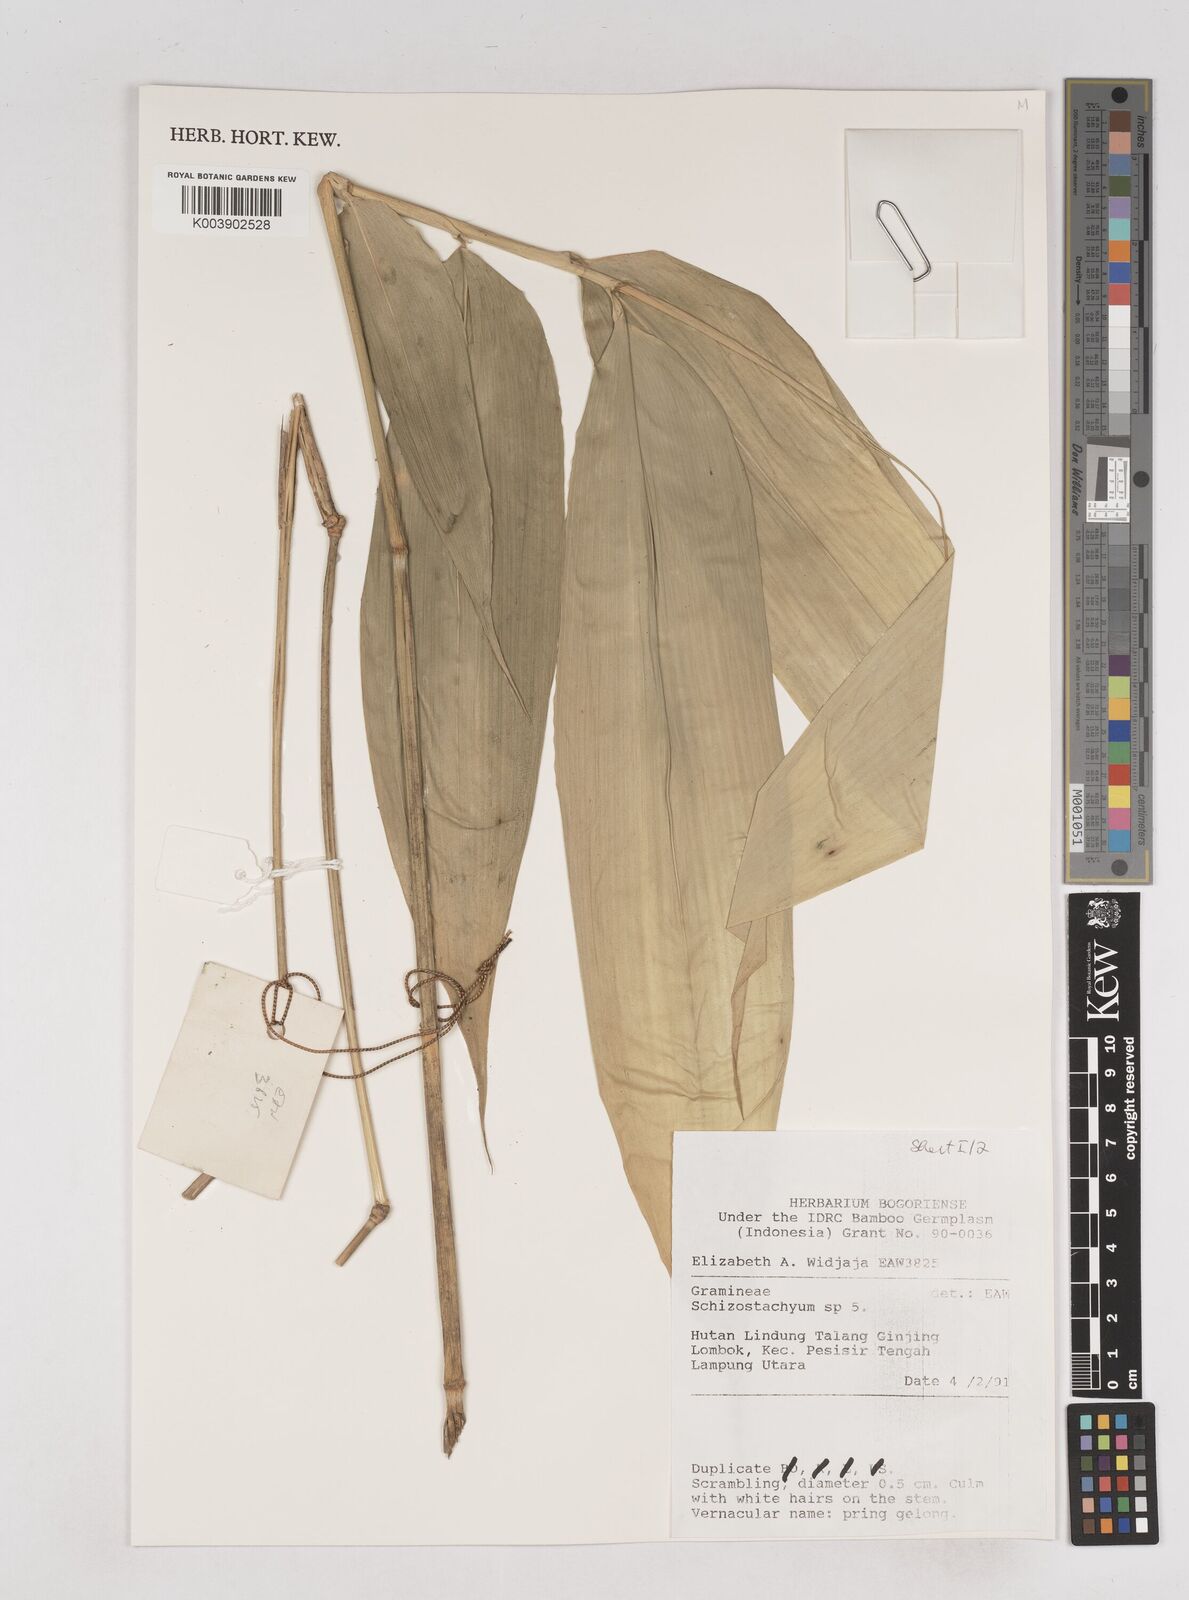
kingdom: Plantae
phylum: Tracheophyta
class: Liliopsida
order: Poales
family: Poaceae
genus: Schizostachyum
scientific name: Schizostachyum
